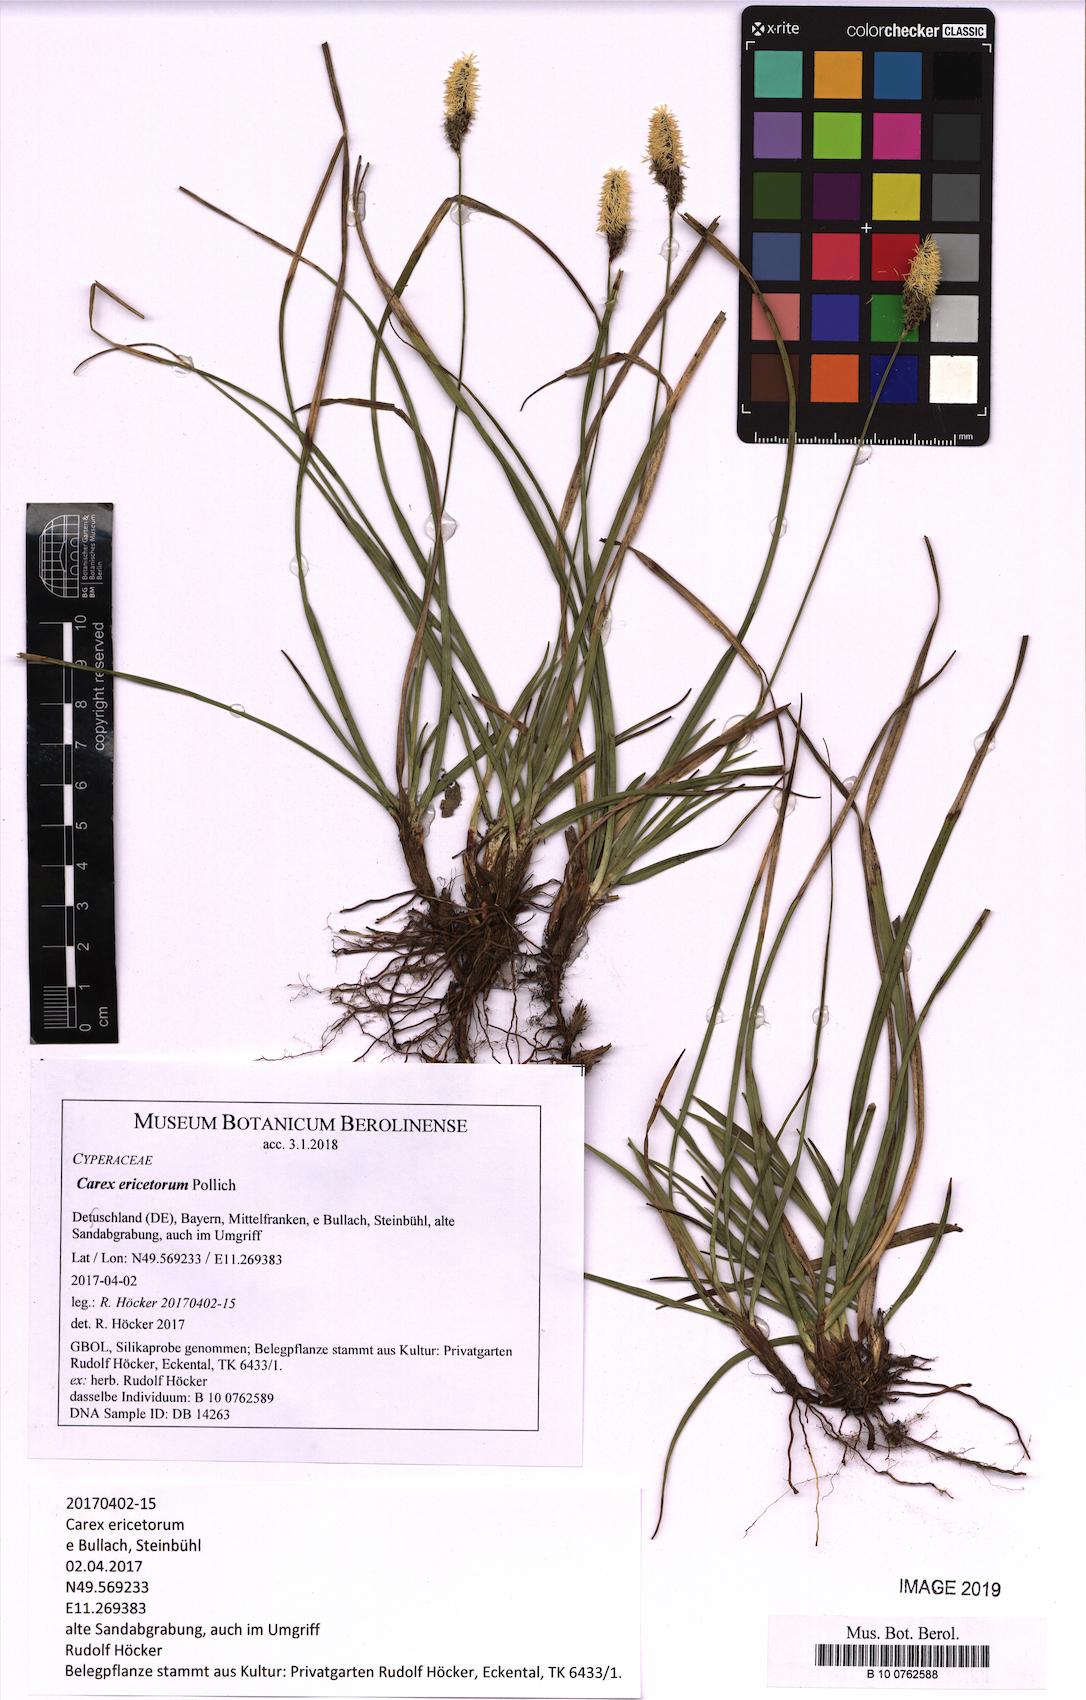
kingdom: Plantae
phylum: Tracheophyta
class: Liliopsida
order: Poales
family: Cyperaceae
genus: Carex
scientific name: Carex ericetorum
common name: Rare spring-sedge
